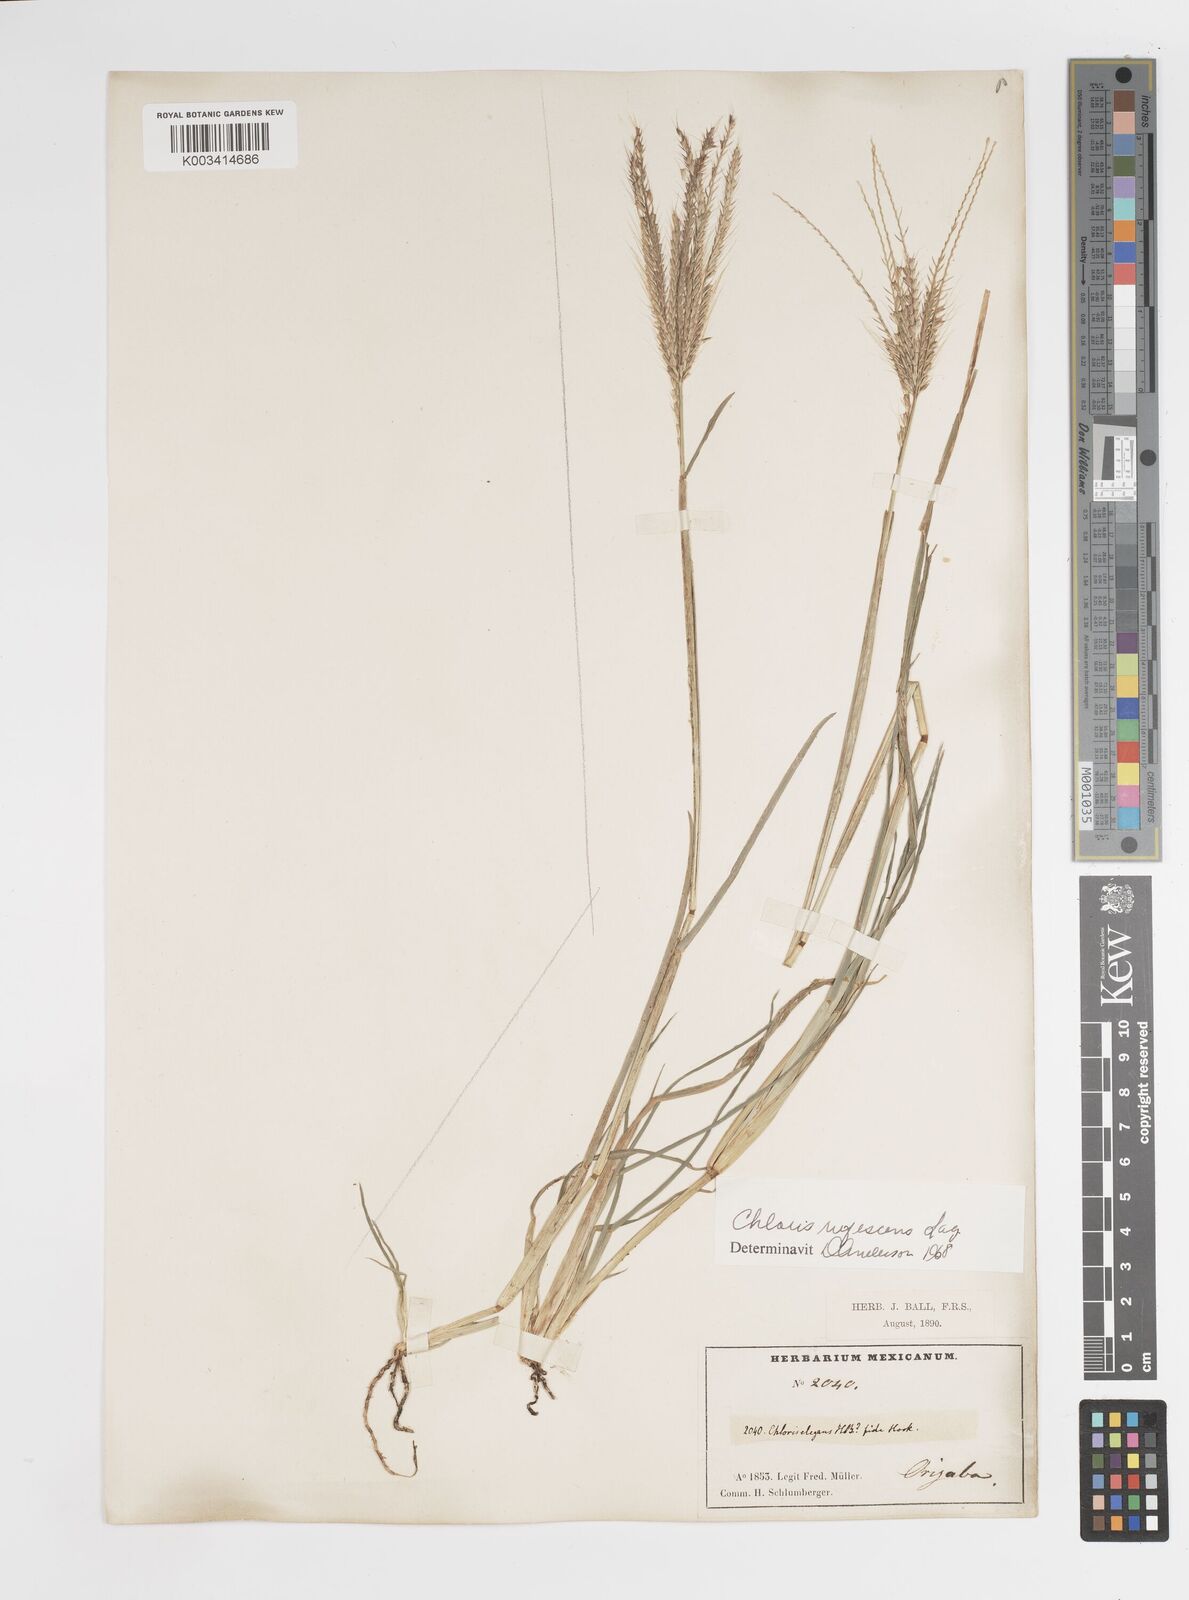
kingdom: Plantae
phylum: Tracheophyta
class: Liliopsida
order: Poales
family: Poaceae
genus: Chloris
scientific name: Chloris rufescens
